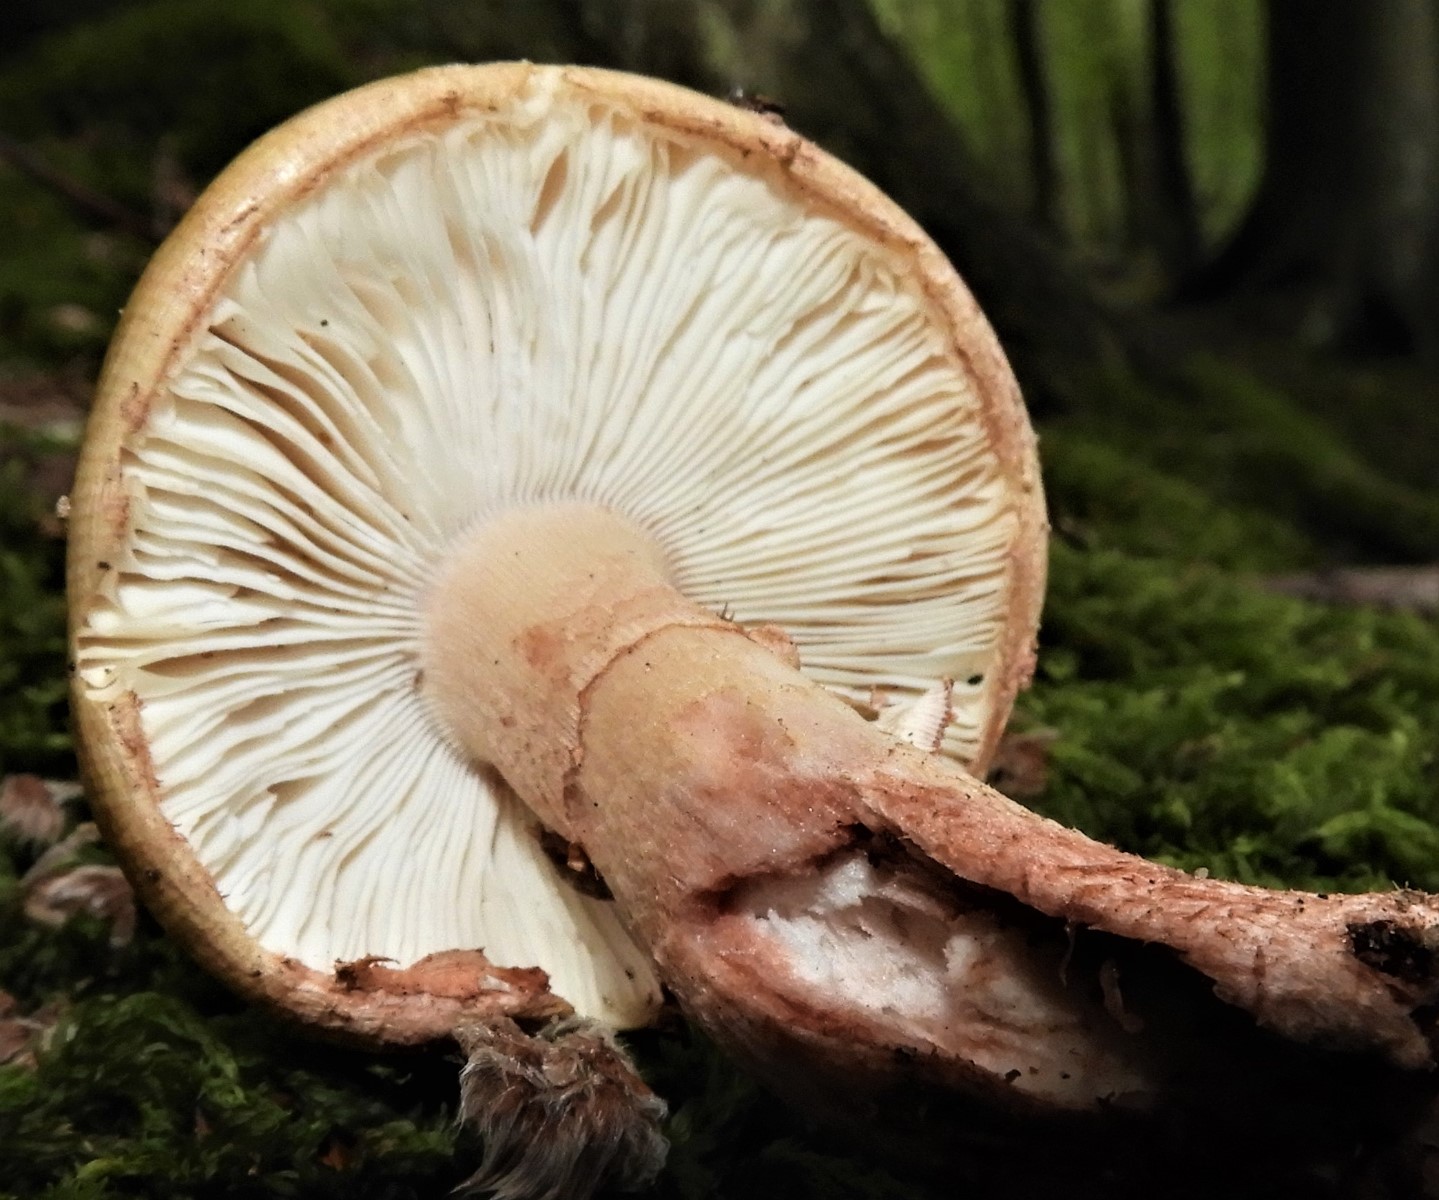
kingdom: Fungi
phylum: Basidiomycota
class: Agaricomycetes
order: Agaricales
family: Amanitaceae
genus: Amanita
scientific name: Amanita rubescens
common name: rødmende fluesvamp
